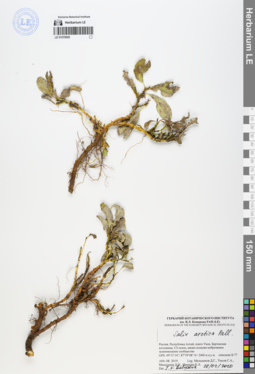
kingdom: Plantae
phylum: Tracheophyta
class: Magnoliopsida
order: Malpighiales
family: Salicaceae
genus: Salix
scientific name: Salix arctica
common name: Arctic willow
